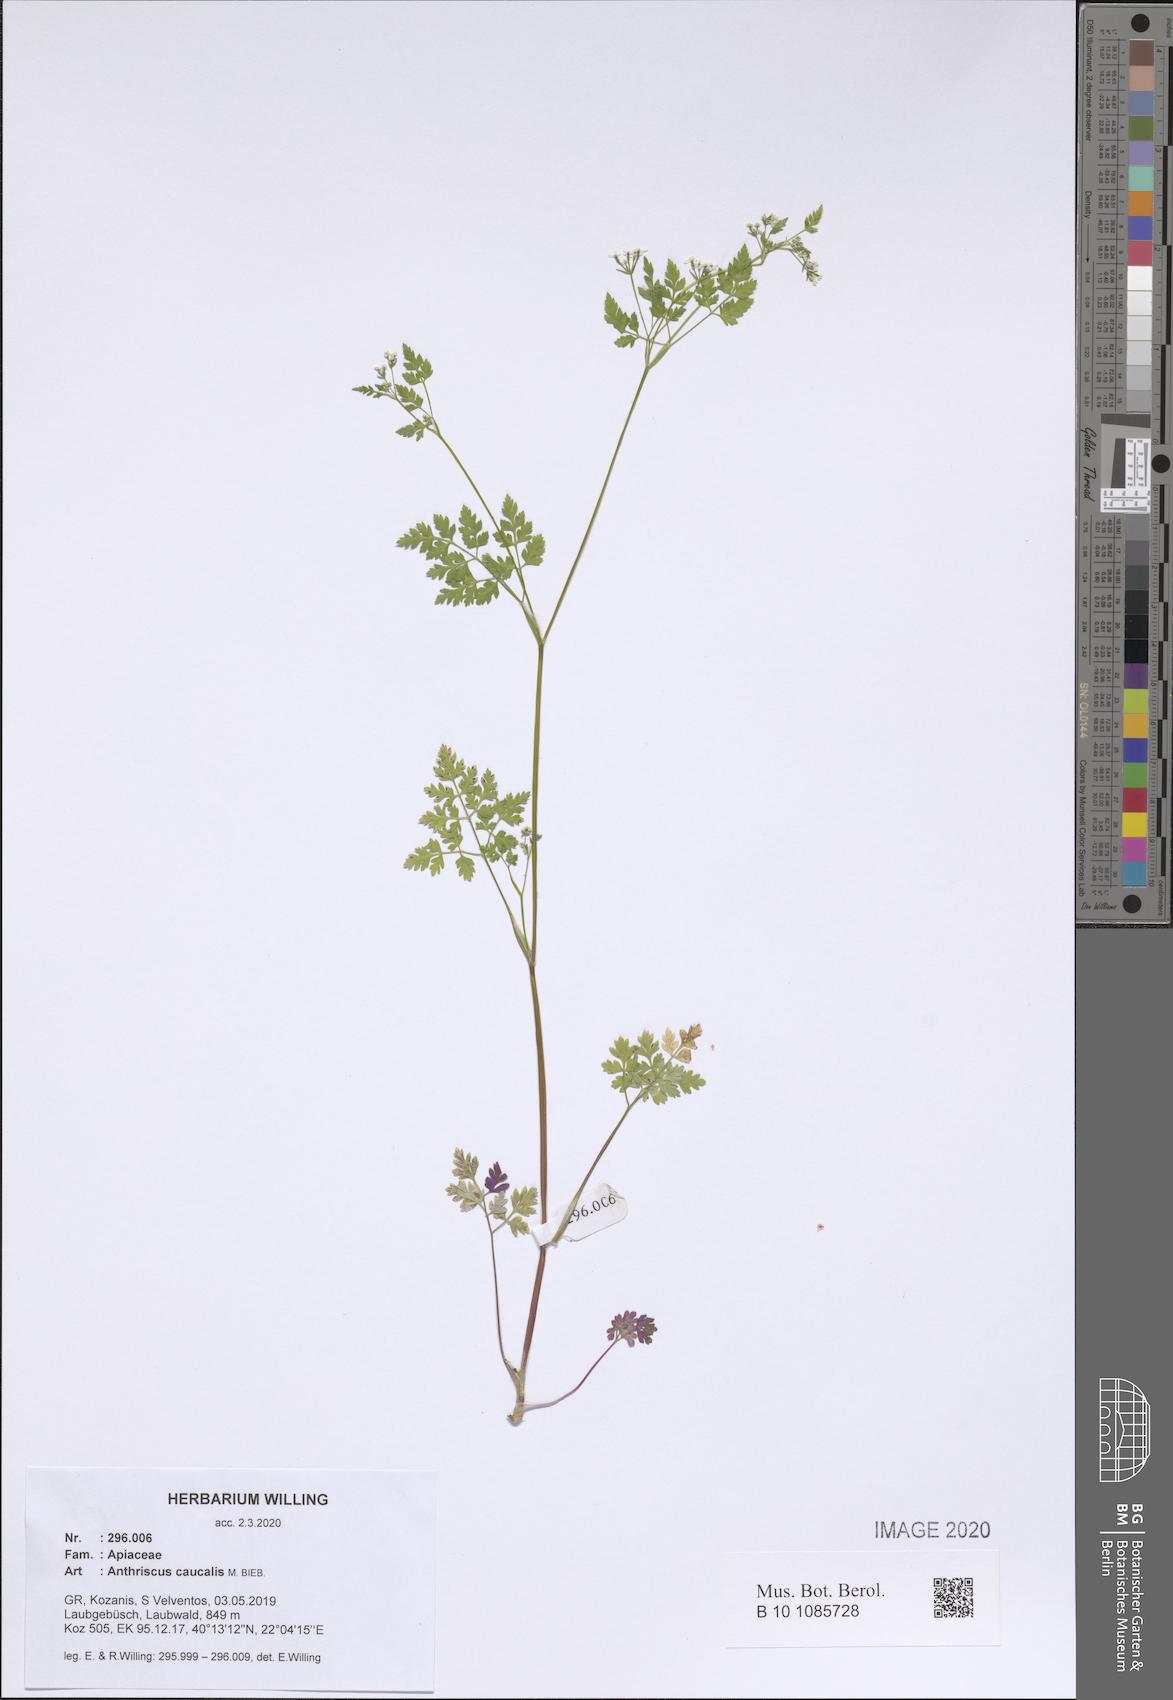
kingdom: Plantae
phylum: Tracheophyta
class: Magnoliopsida
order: Apiales
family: Apiaceae
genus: Anthriscus
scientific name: Anthriscus caucalis
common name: Bur chervil
